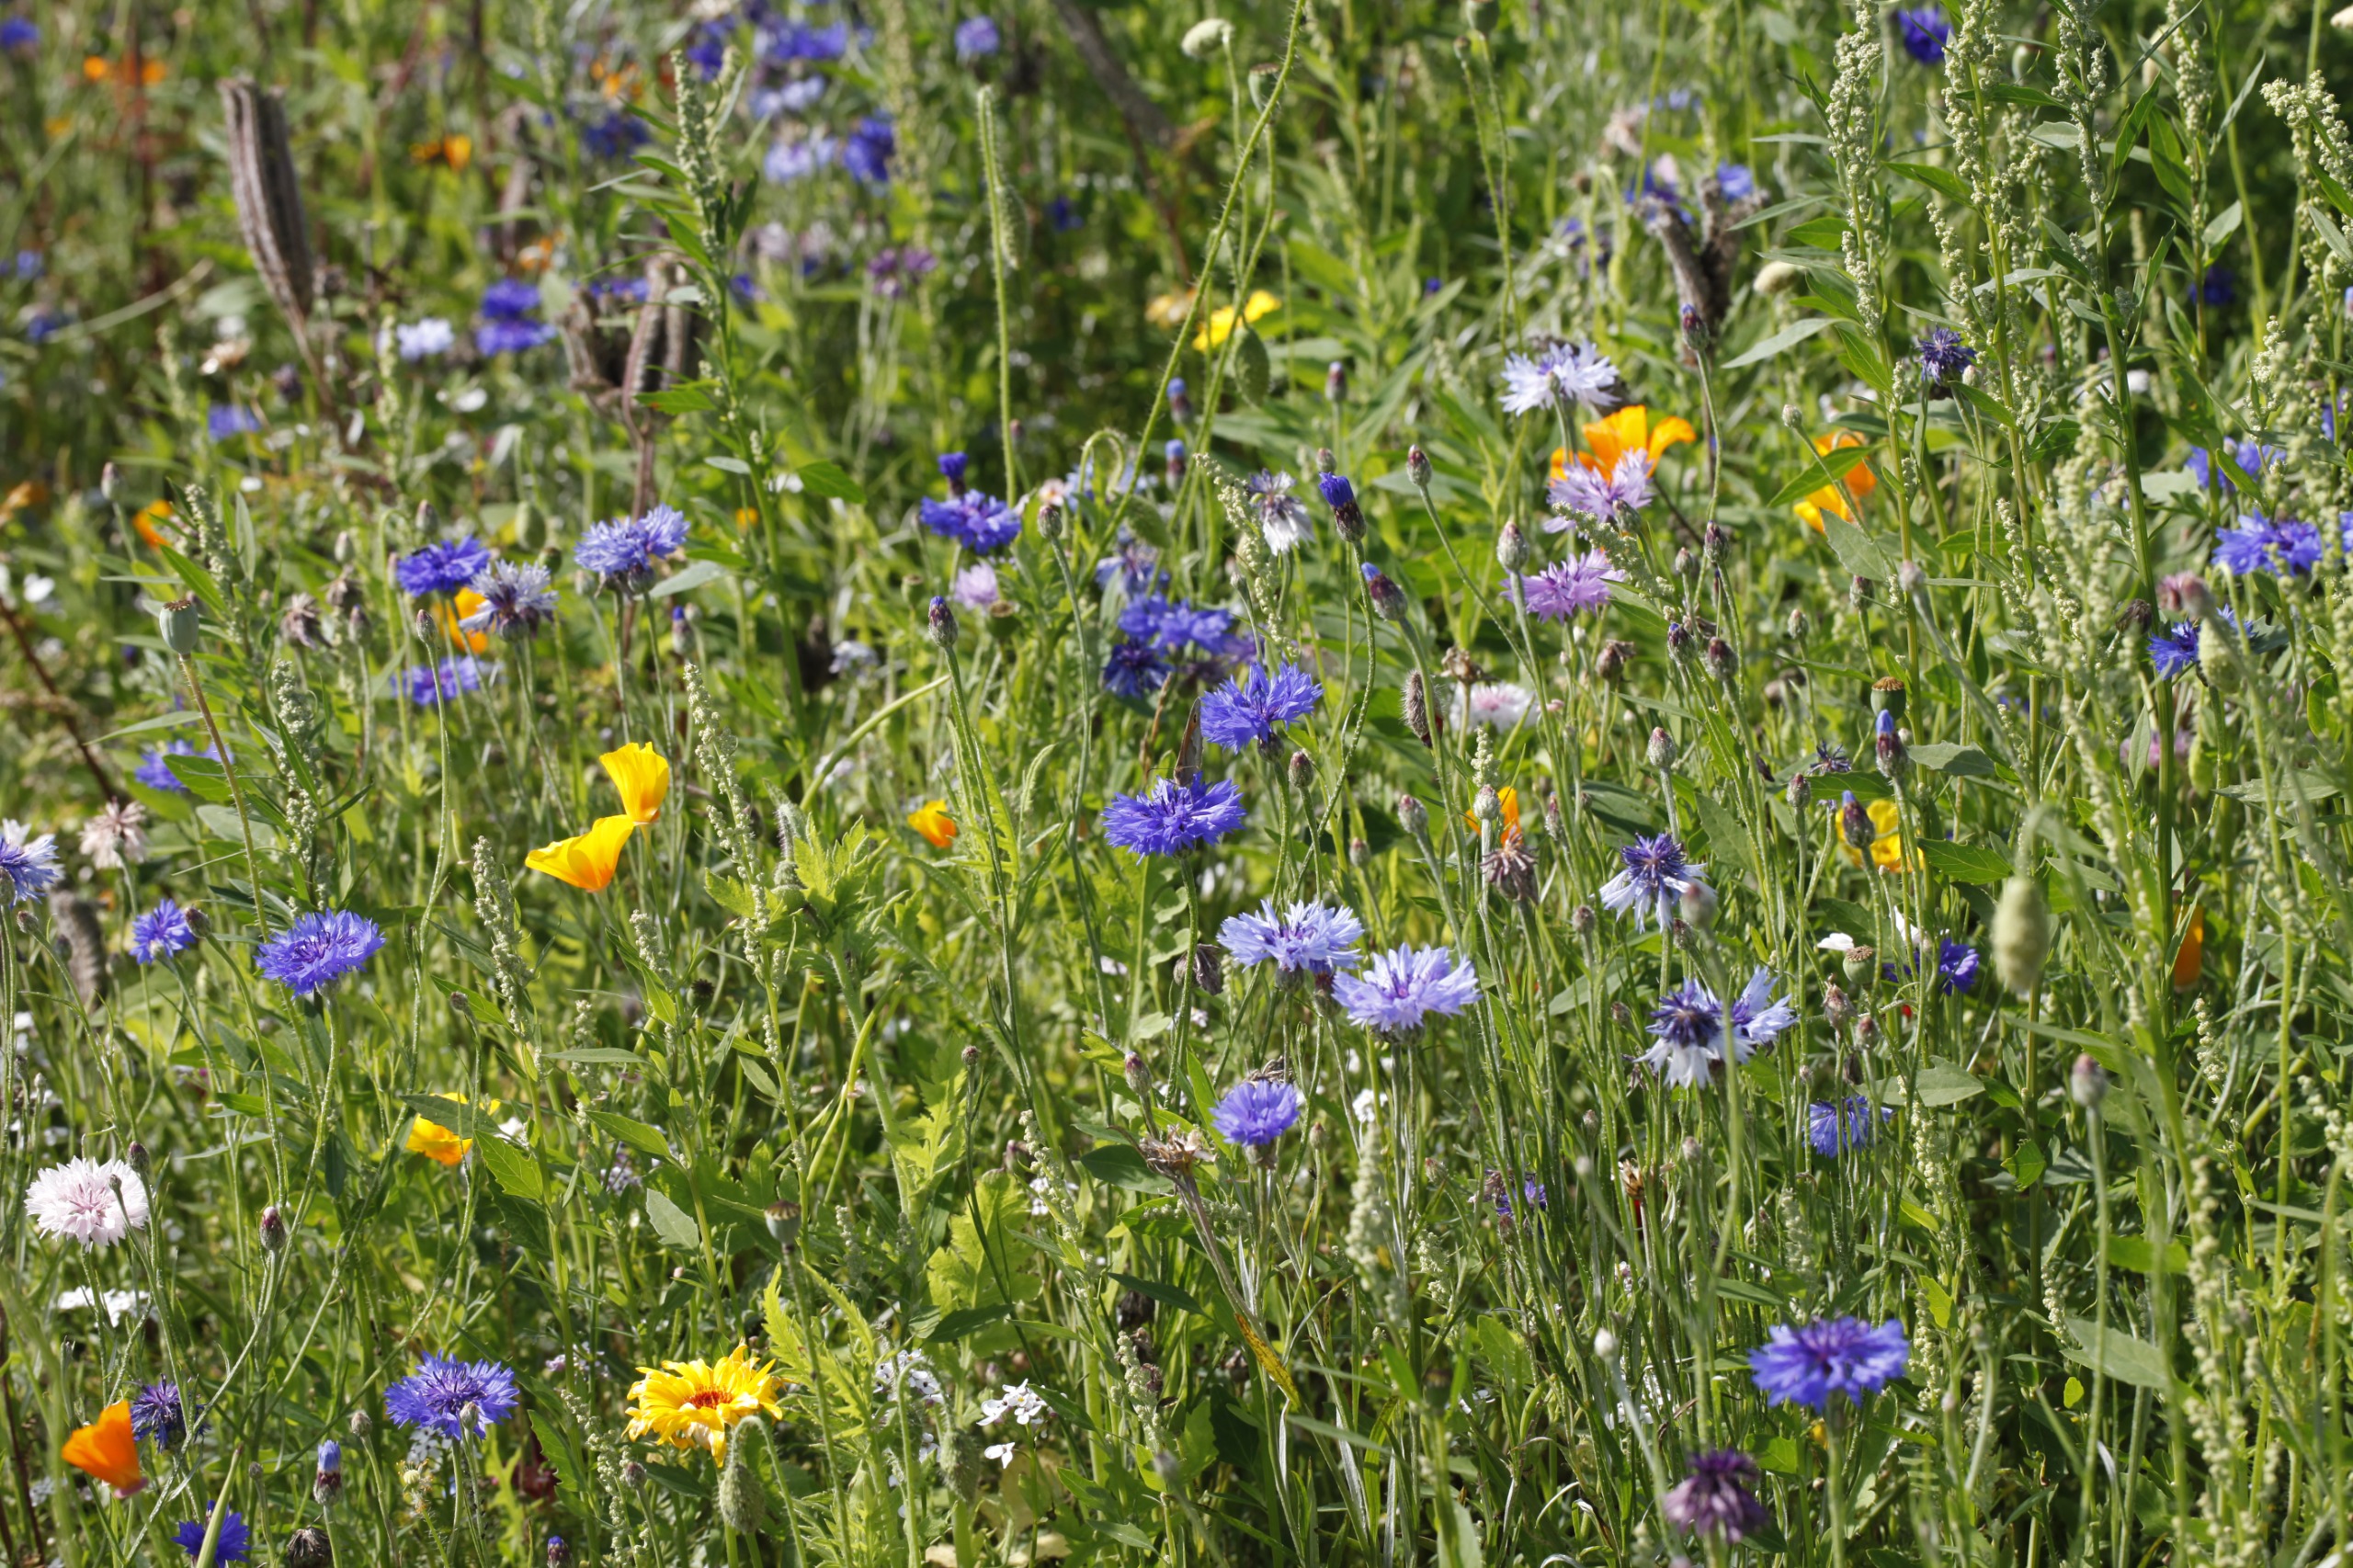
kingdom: Animalia
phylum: Arthropoda
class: Insecta
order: Lepidoptera
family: Nymphalidae
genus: Maniola
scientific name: Maniola jurtina
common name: Græsrandøje
